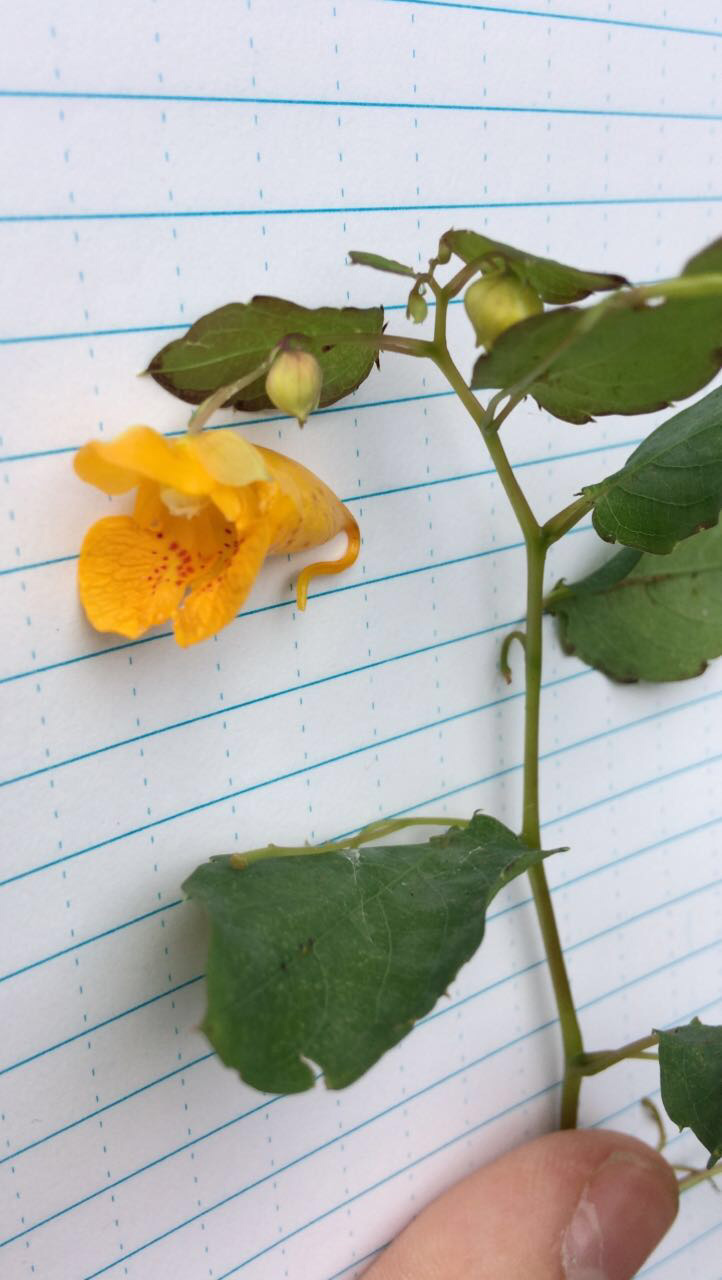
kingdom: Plantae
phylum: Tracheophyta
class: Magnoliopsida
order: Ericales
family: Balsaminaceae
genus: Impatiens
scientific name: Impatiens capensis
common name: Jewelweed
